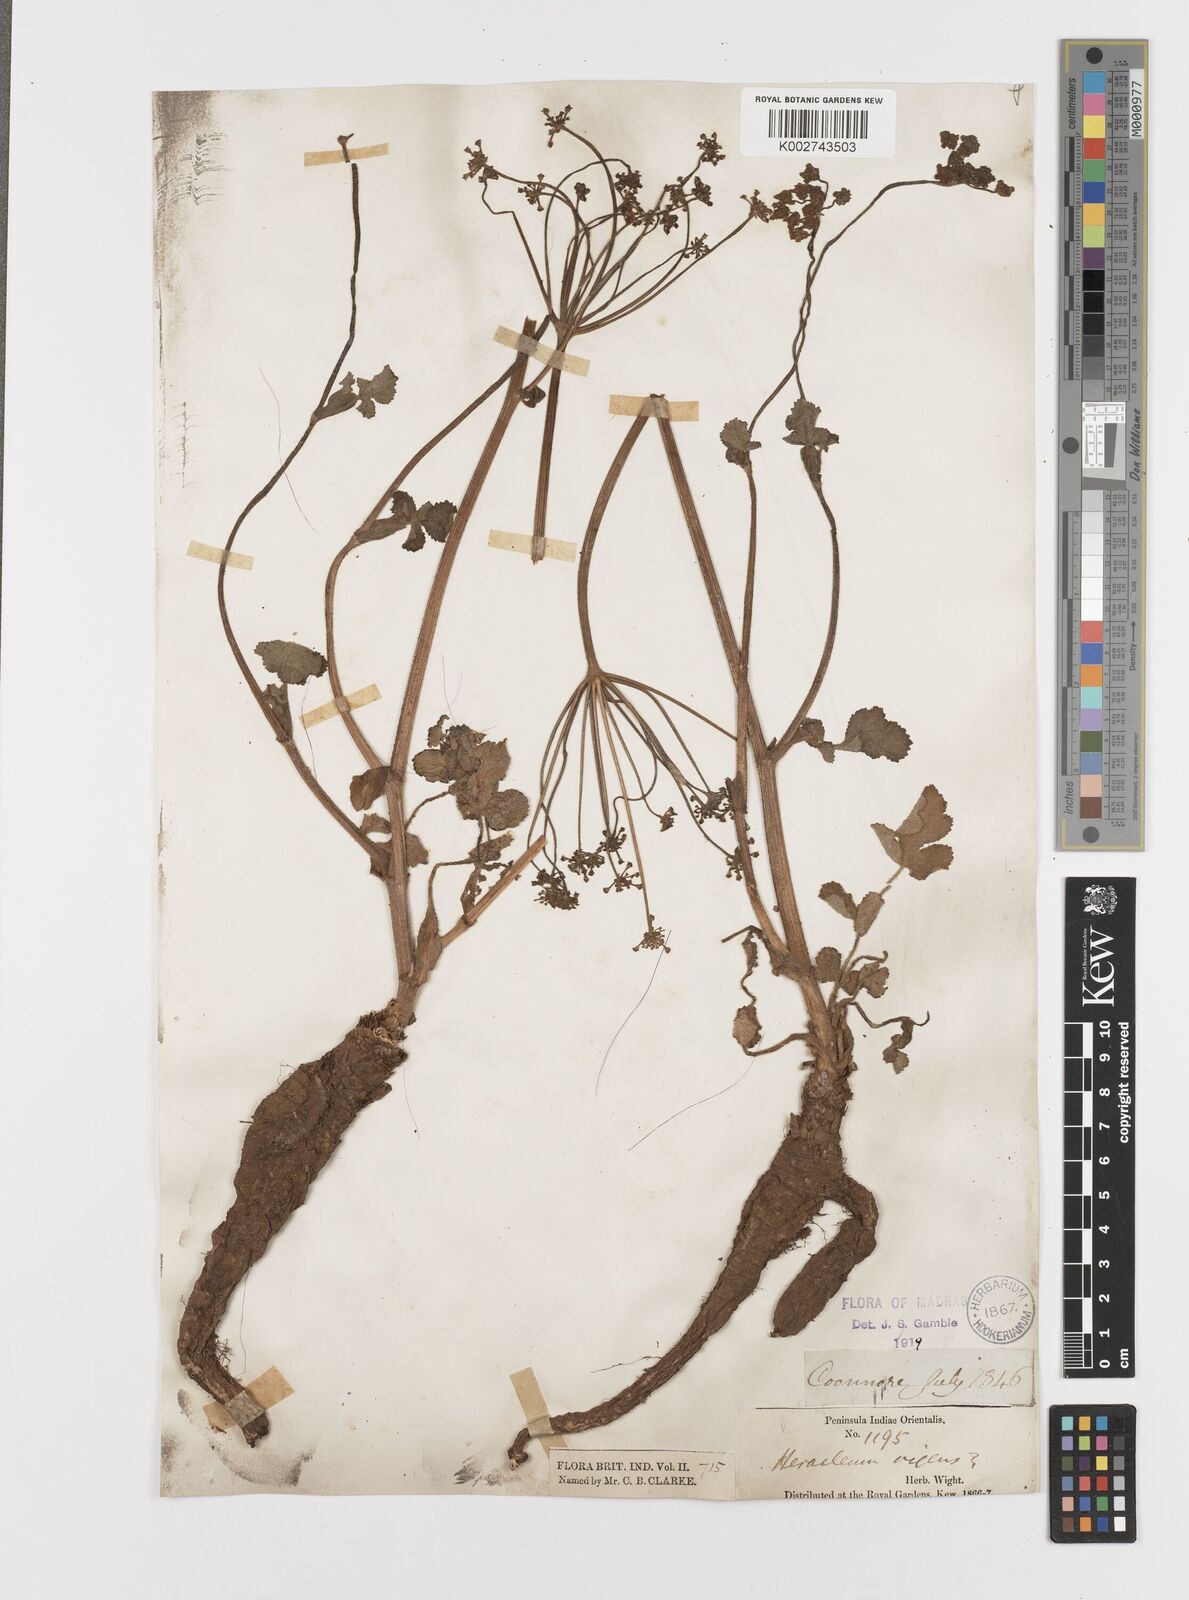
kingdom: Plantae
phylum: Tracheophyta
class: Magnoliopsida
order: Apiales
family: Apiaceae
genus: Tetrataenium
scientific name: Tetrataenium rigens
